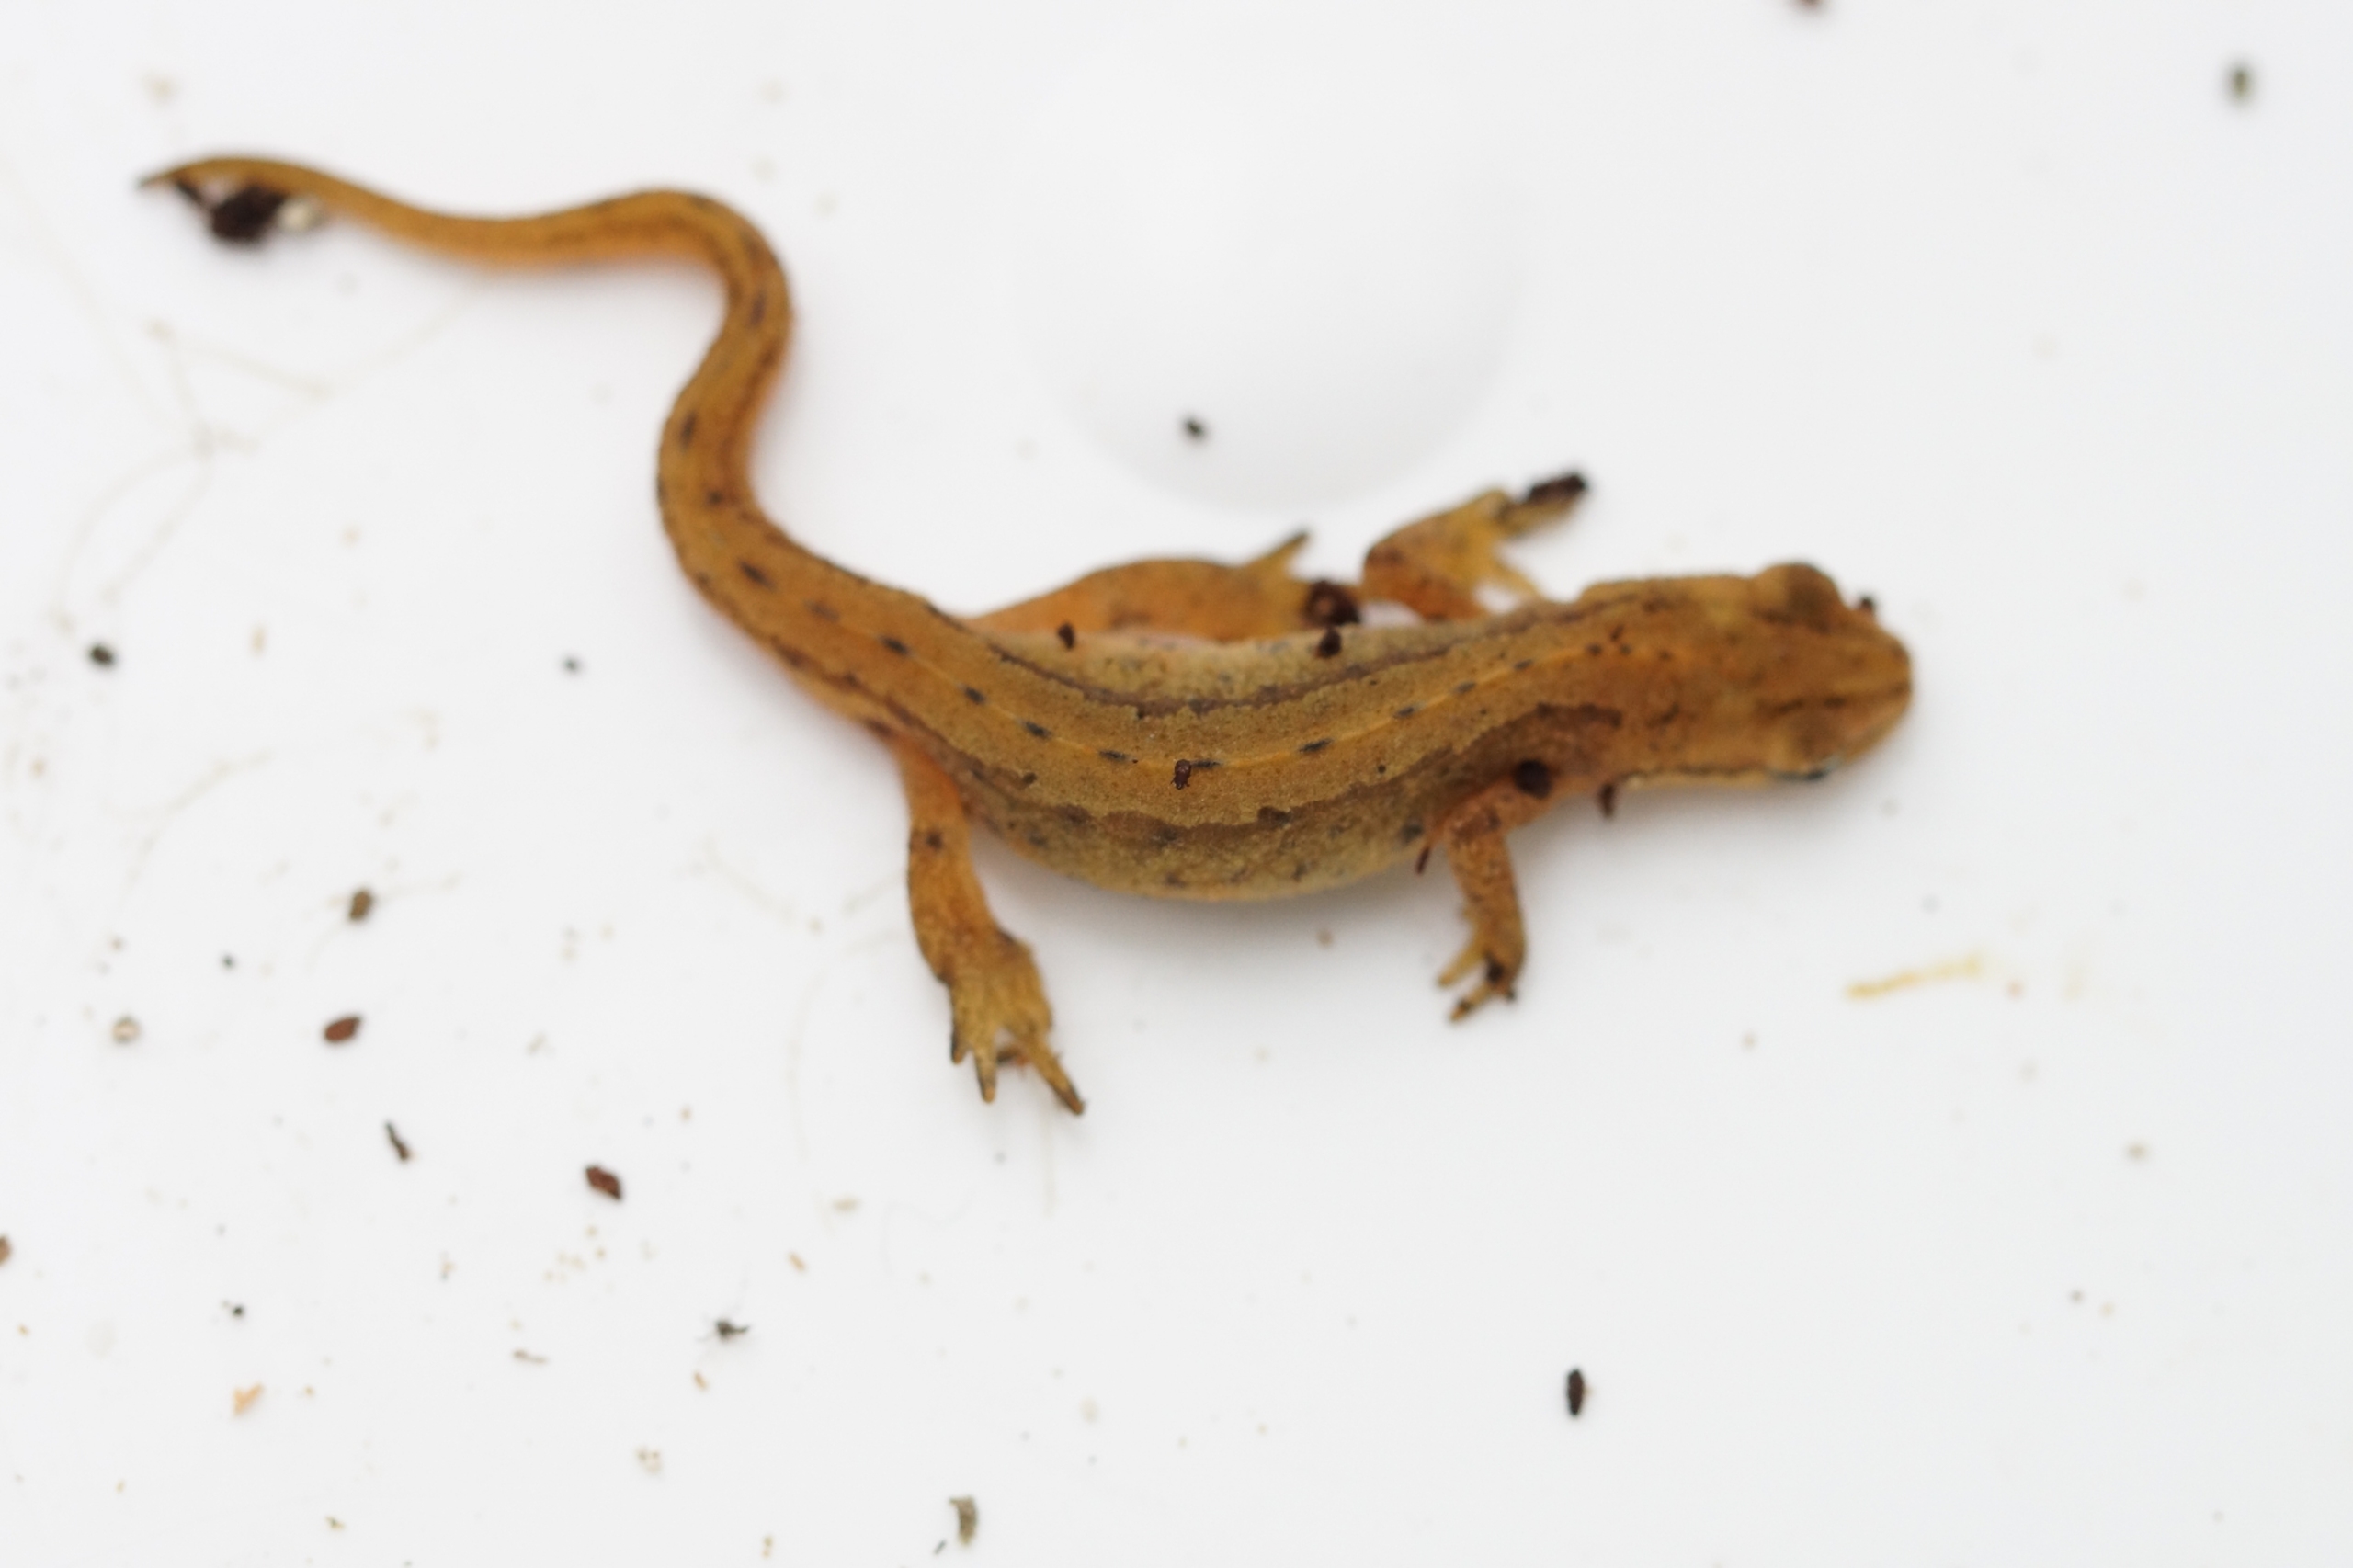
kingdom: Animalia
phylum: Chordata
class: Amphibia
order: Caudata
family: Salamandridae
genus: Lissotriton
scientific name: Lissotriton vulgaris
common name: Lille vandsalamander
